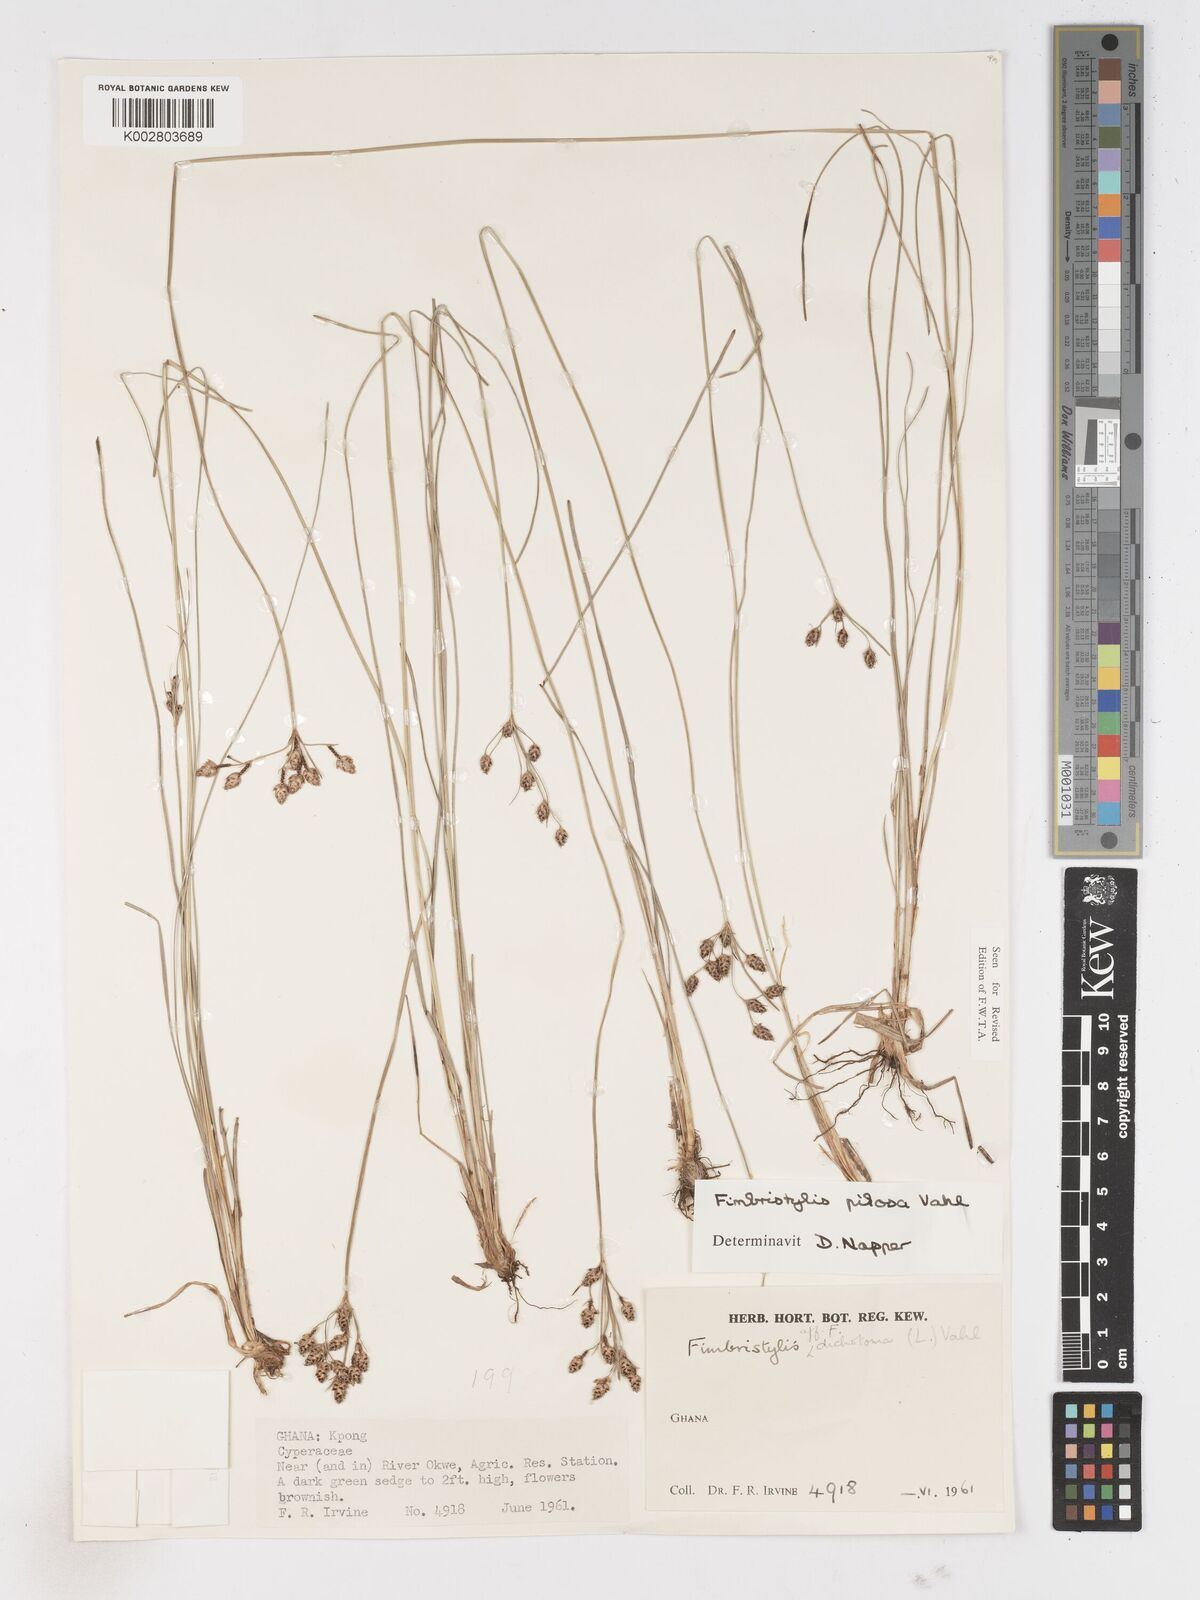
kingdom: Plantae
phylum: Tracheophyta
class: Liliopsida
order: Poales
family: Cyperaceae
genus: Fimbristylis
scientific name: Fimbristylis pilosa
